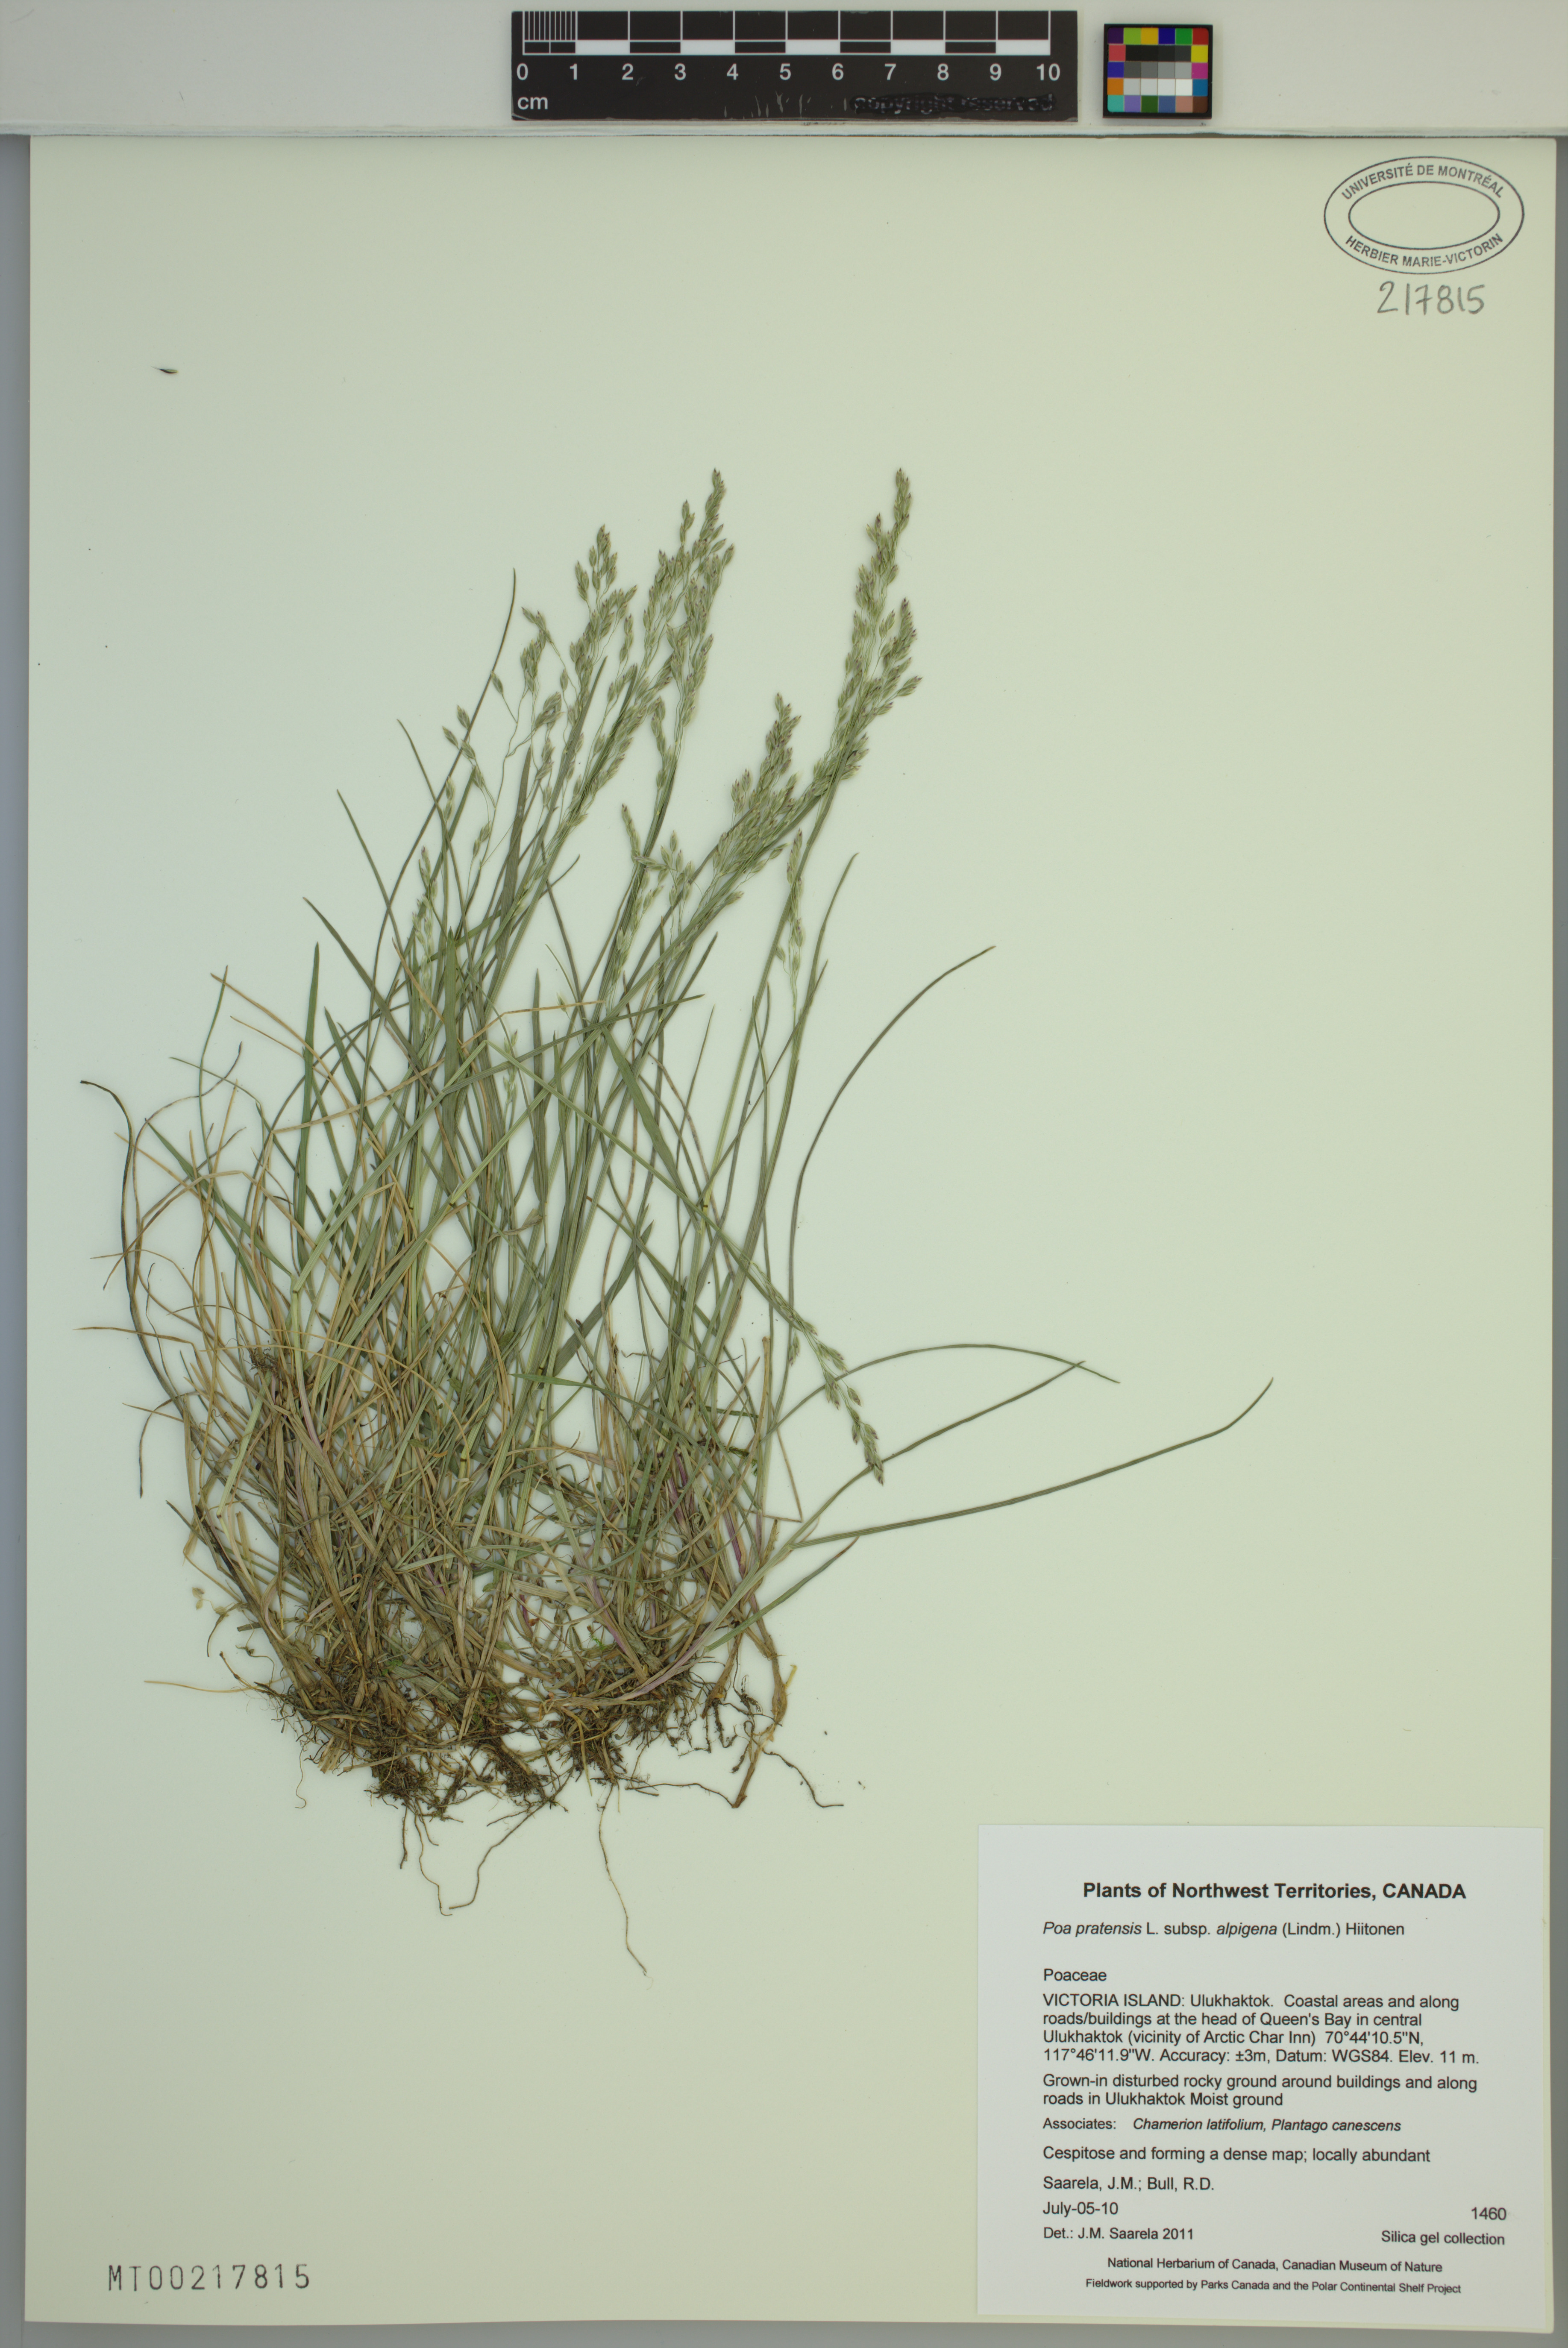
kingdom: Plantae
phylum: Tracheophyta
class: Liliopsida
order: Poales
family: Poaceae
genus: Poa
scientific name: Poa alpigena
